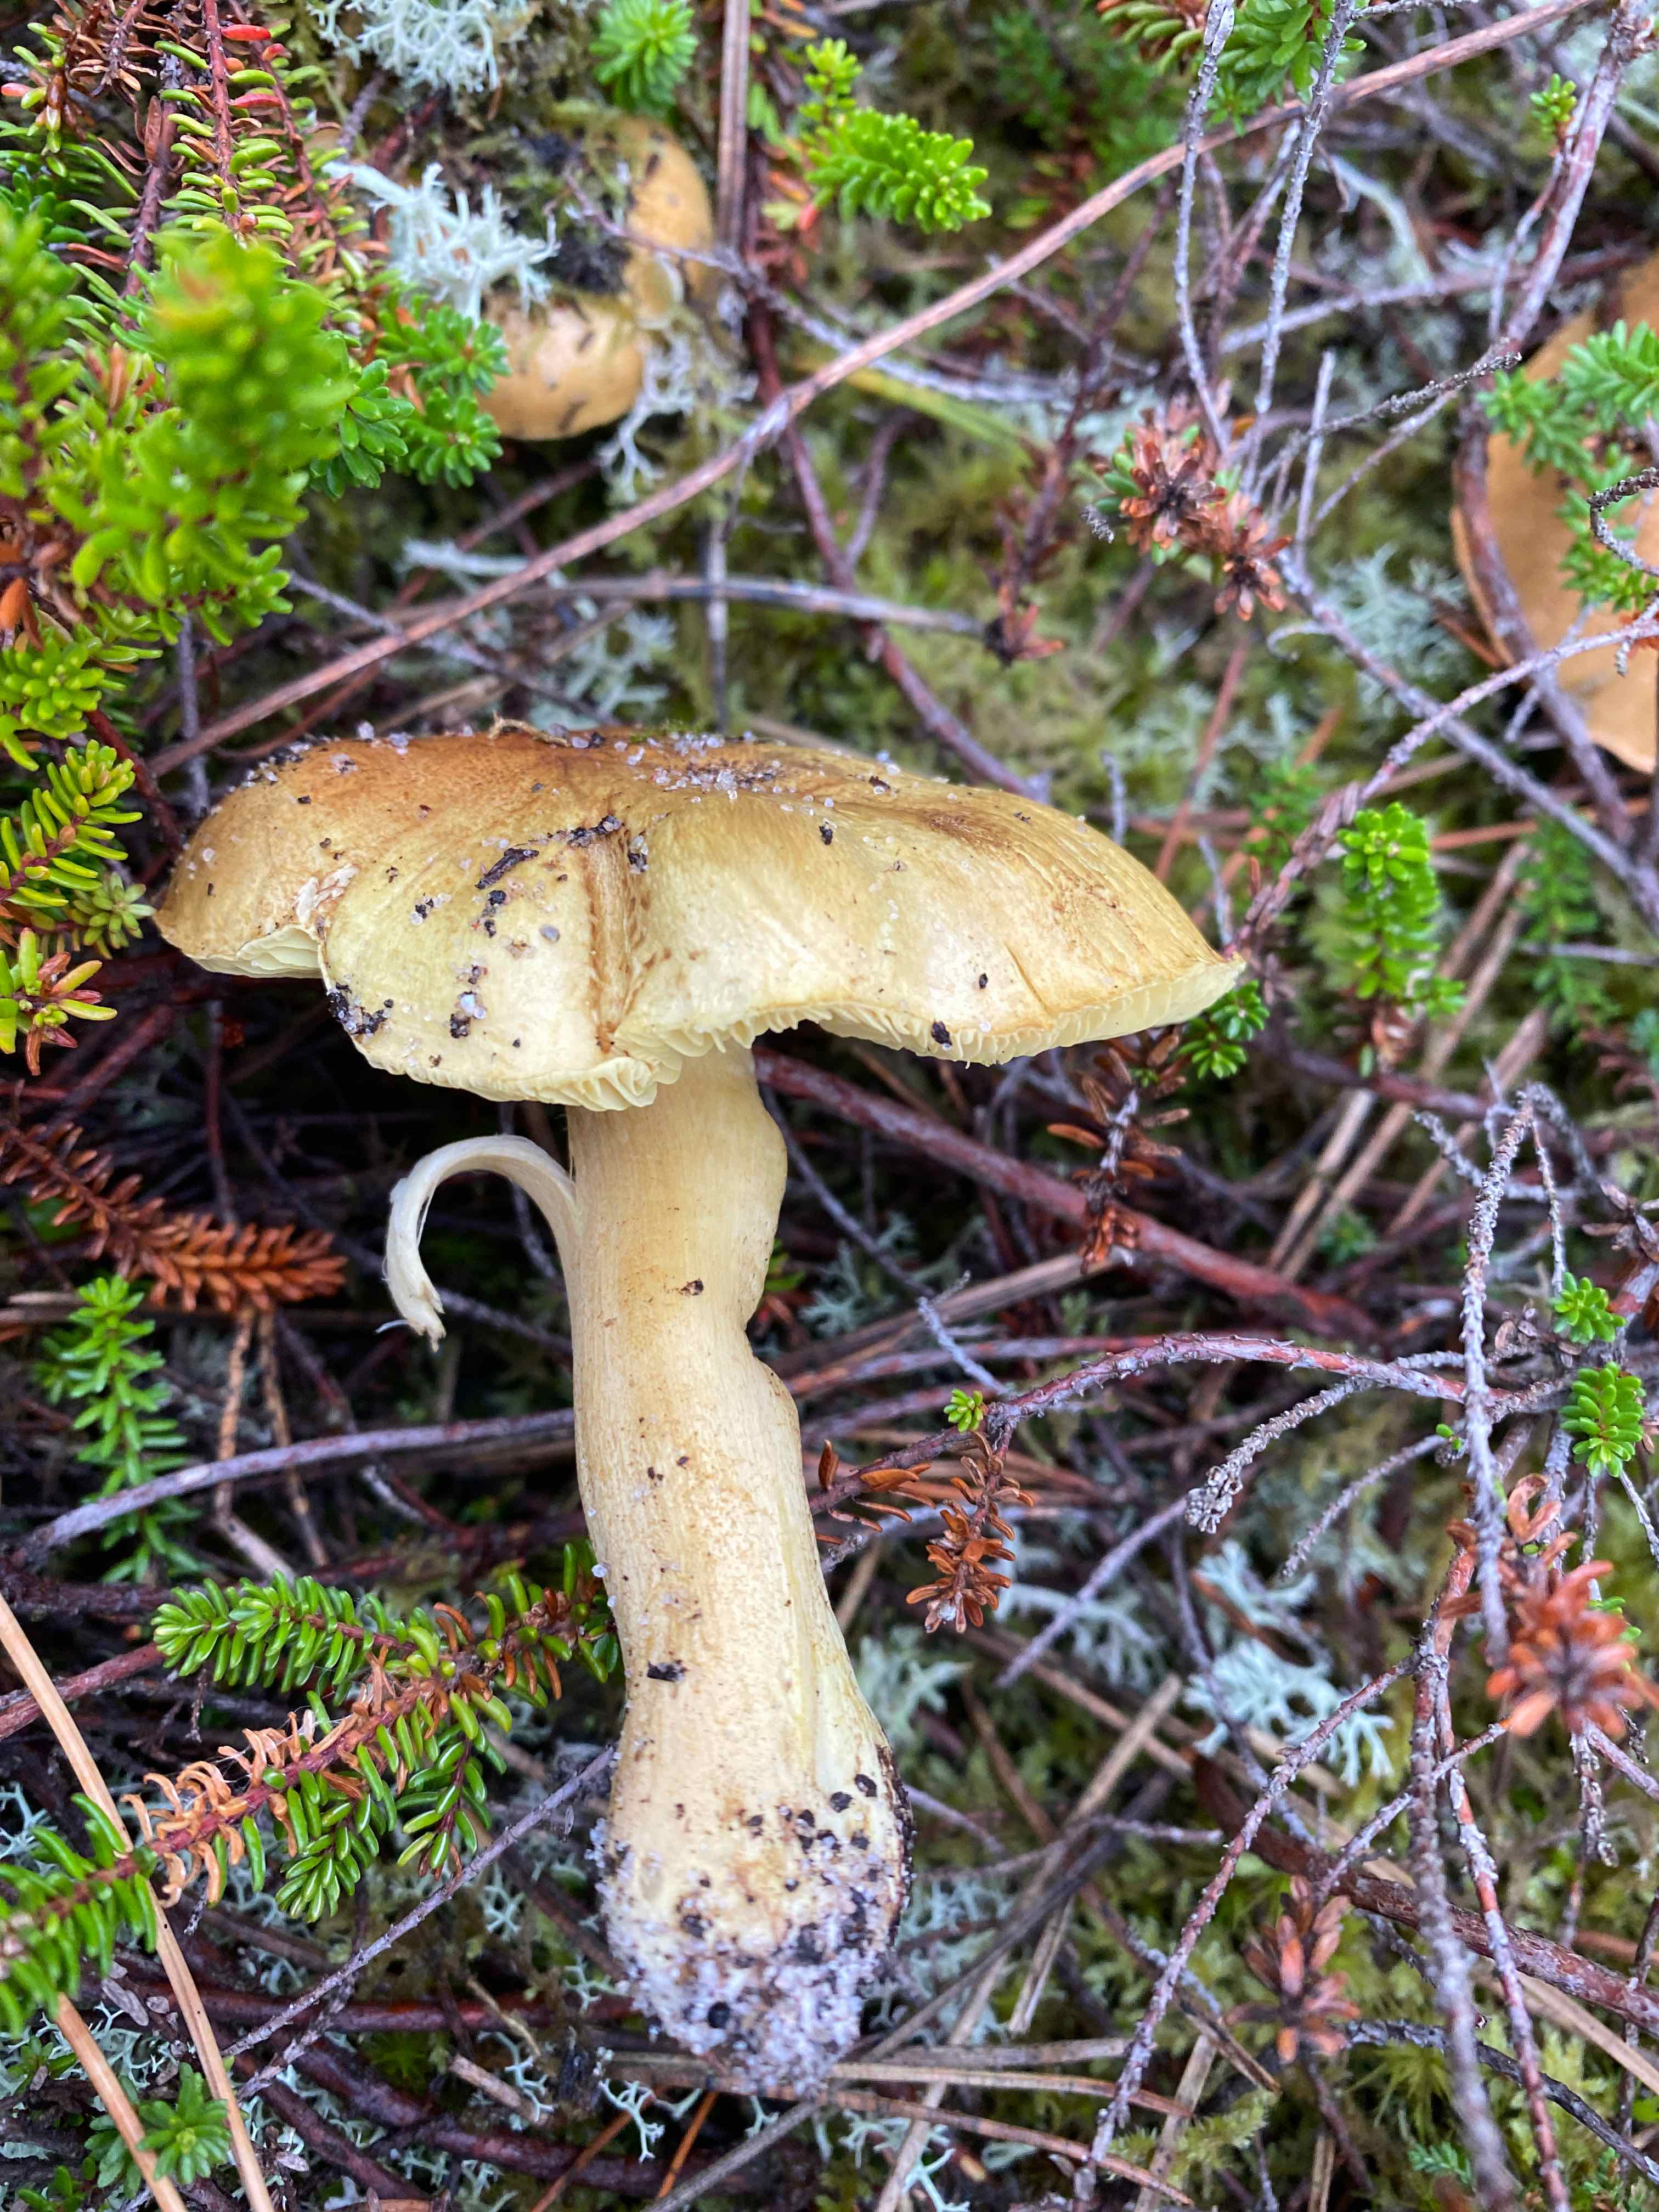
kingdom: Fungi
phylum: Basidiomycota
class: Agaricomycetes
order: Agaricales
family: Tricholomataceae
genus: Tricholoma
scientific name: Tricholoma equestre
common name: ægte ridderhat
